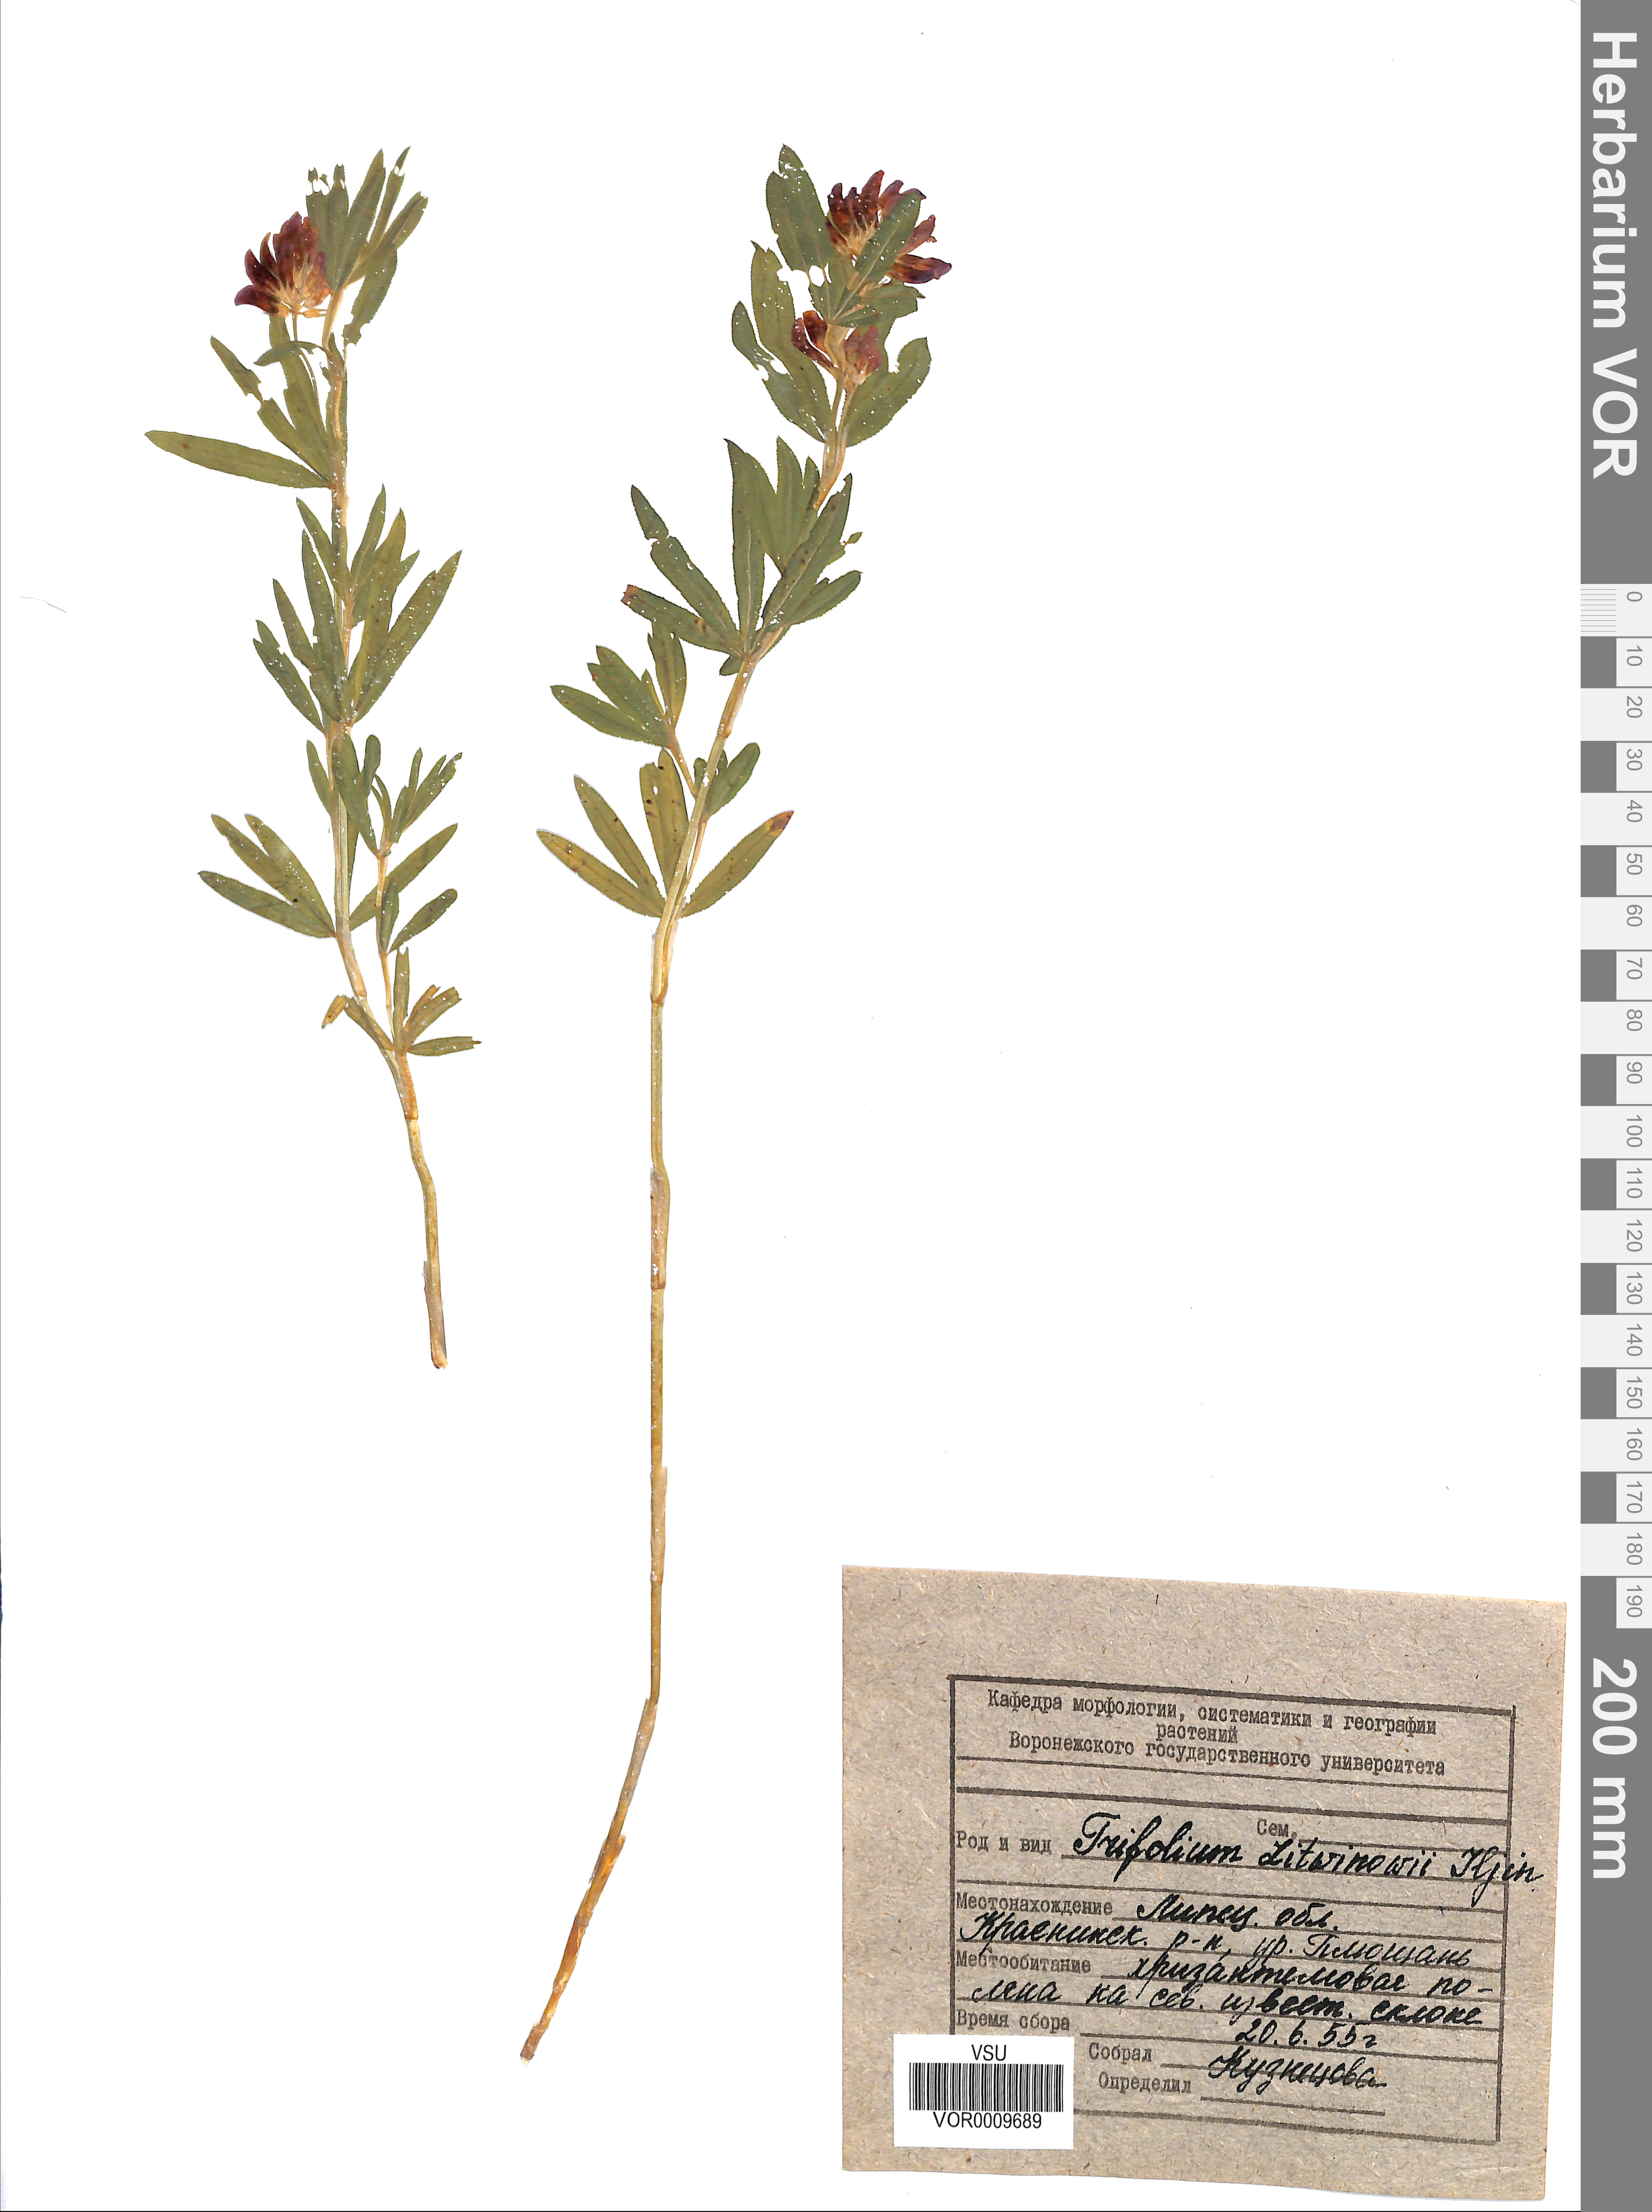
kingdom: Plantae
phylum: Tracheophyta
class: Magnoliopsida
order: Fabales
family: Fabaceae
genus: Trifolium
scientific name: Trifolium lupinaster
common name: Lupine clover
